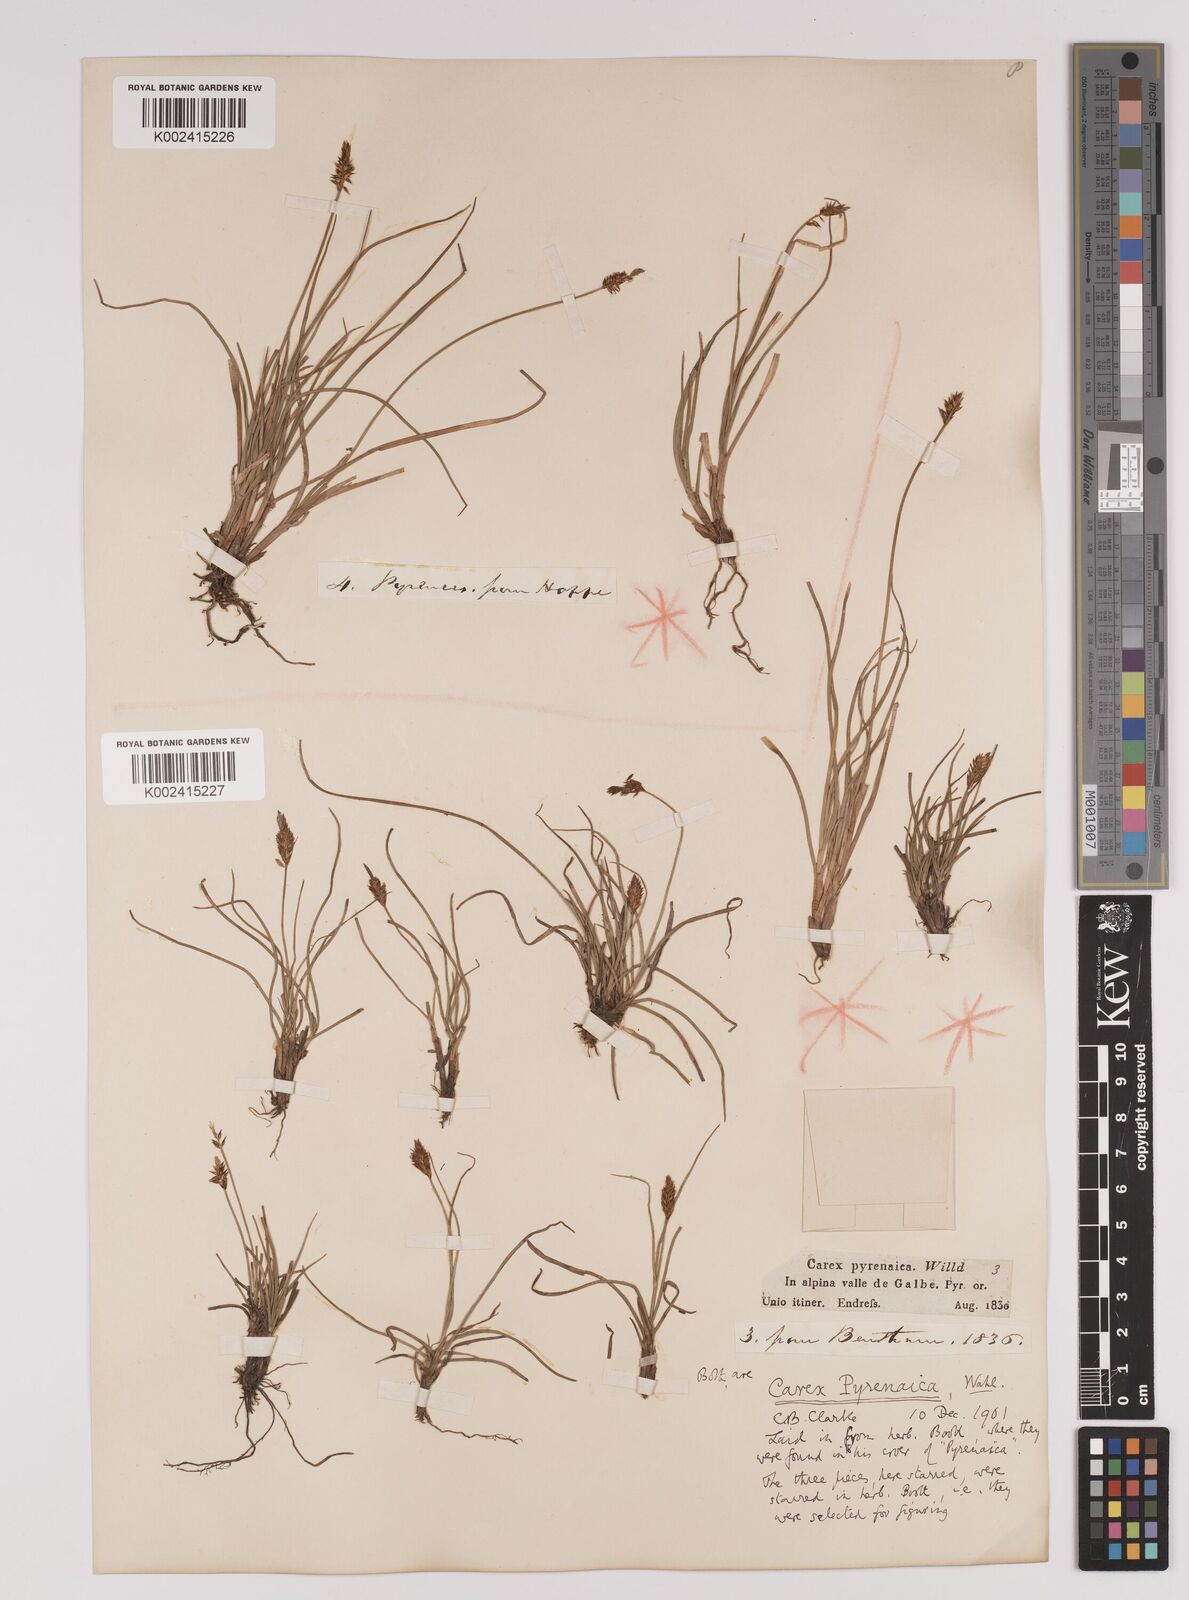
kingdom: Plantae
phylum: Tracheophyta
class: Liliopsida
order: Poales
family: Cyperaceae
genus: Carex
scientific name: Carex pyrenaica
